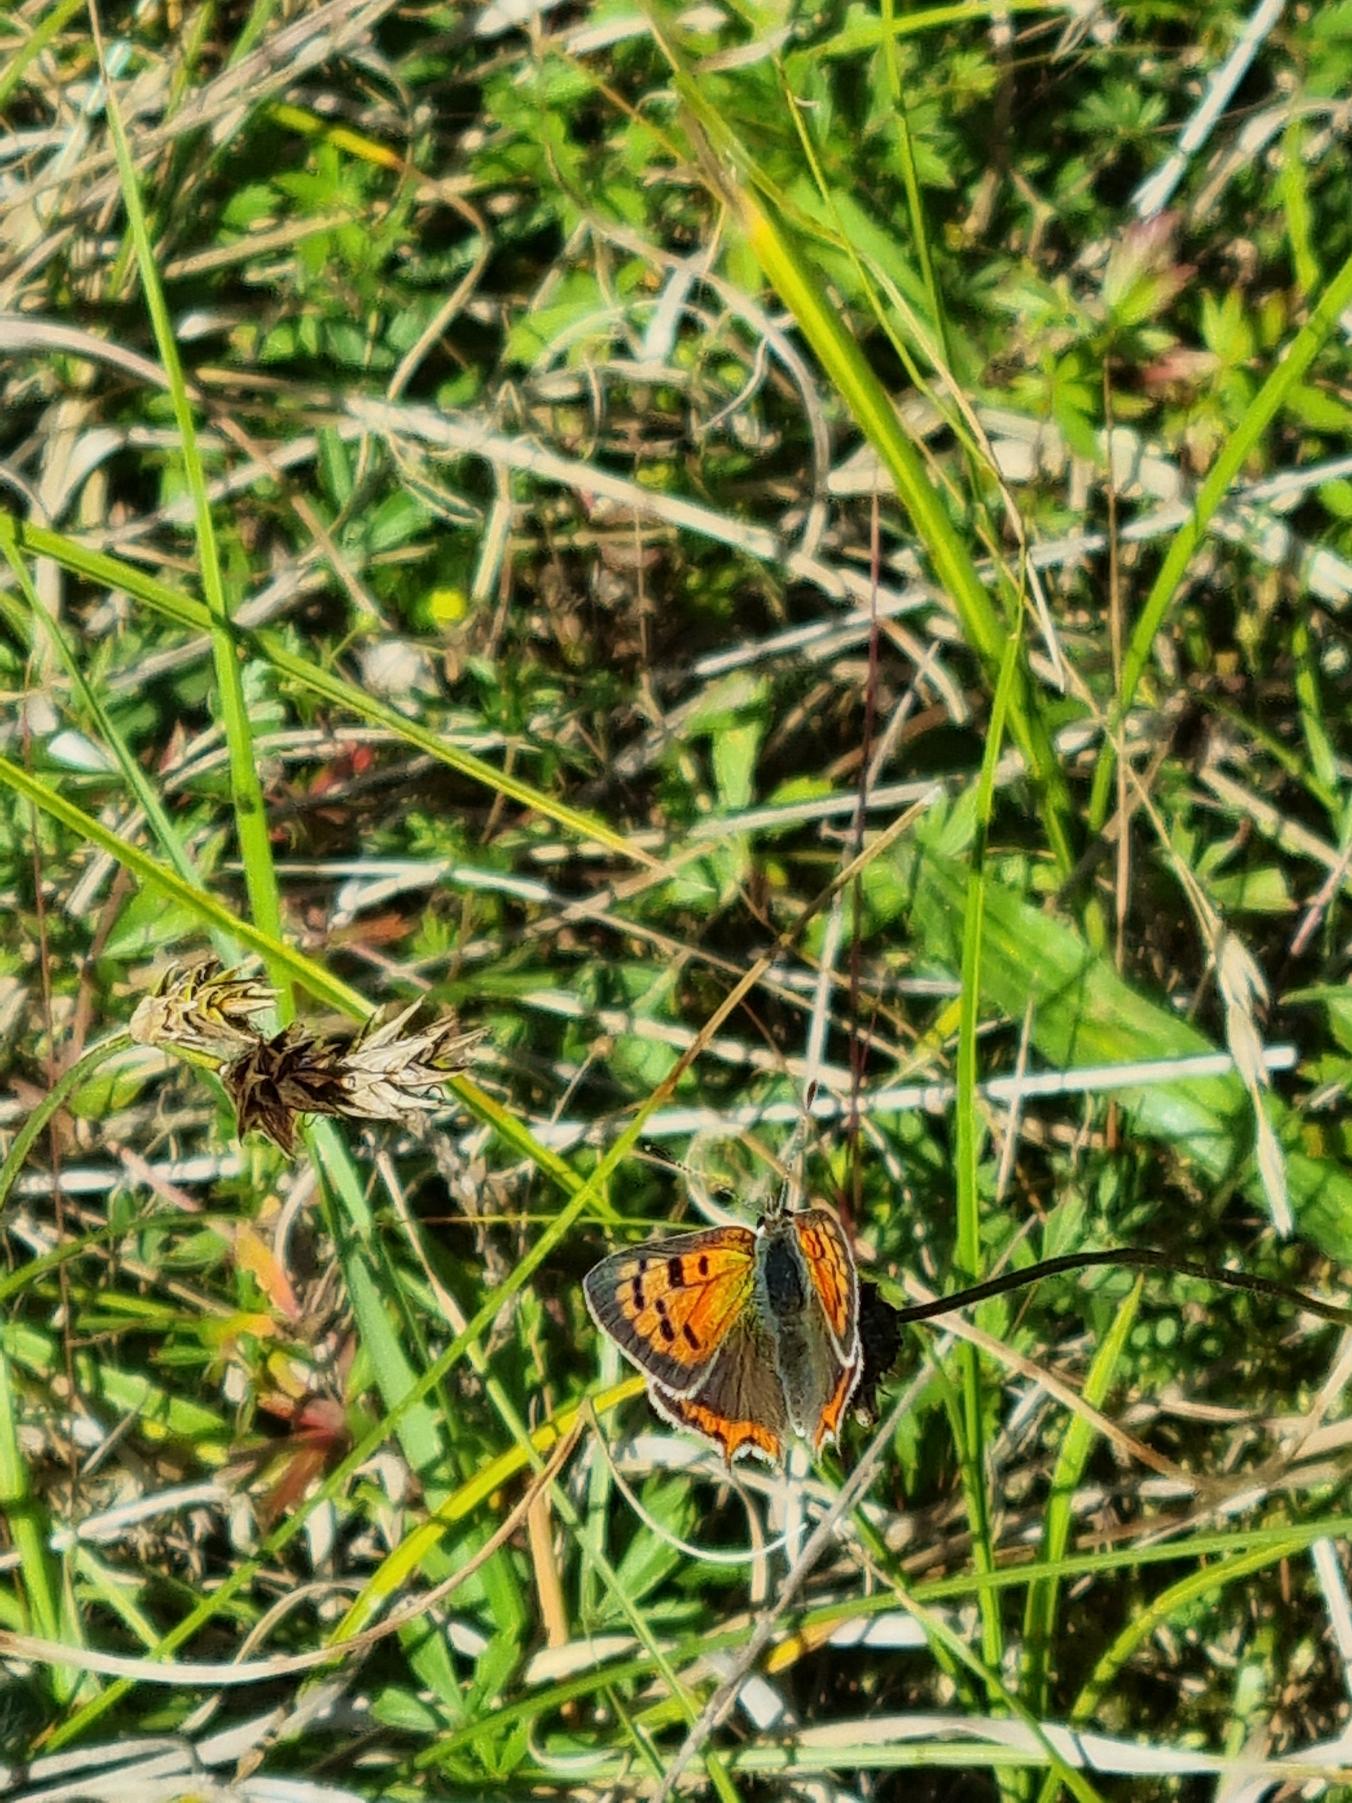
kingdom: Animalia
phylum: Arthropoda
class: Insecta
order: Lepidoptera
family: Lycaenidae
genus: Lycaena
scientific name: Lycaena phlaeas
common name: Lille ildfugl
